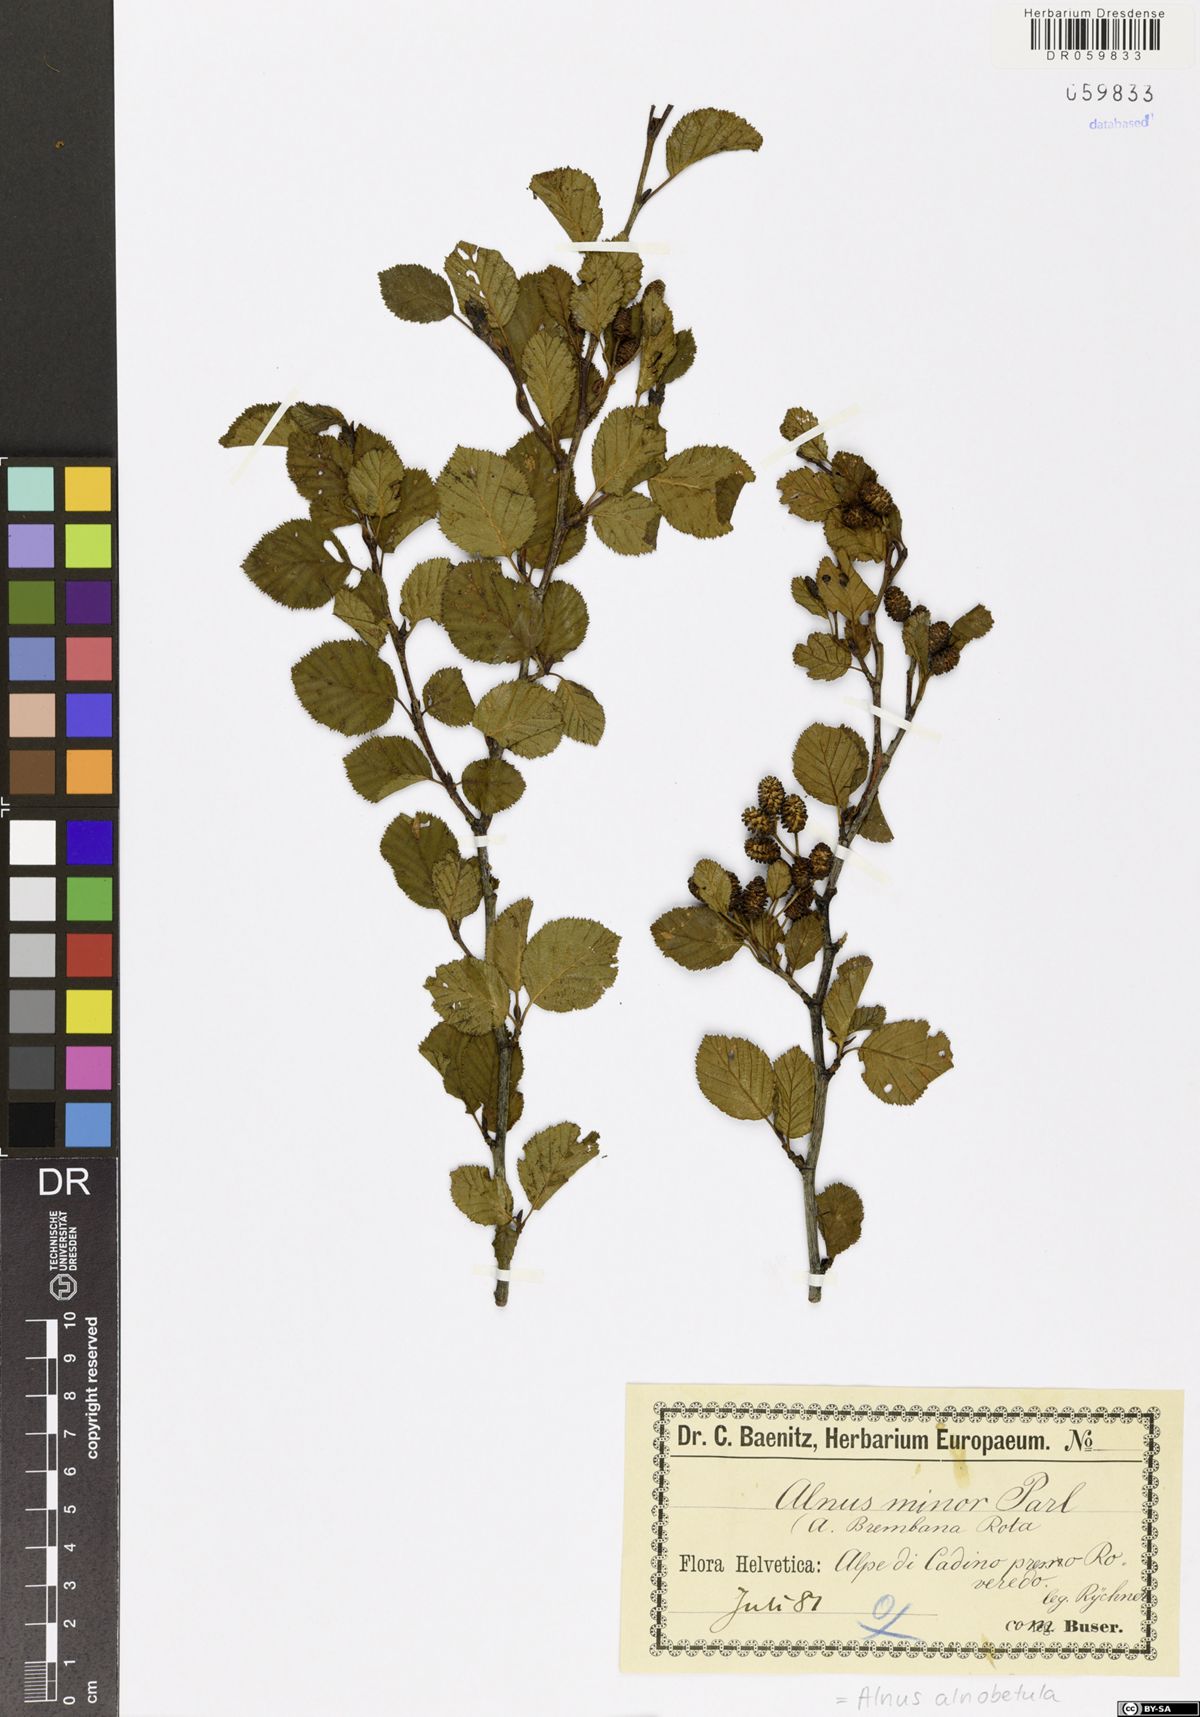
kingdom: Plantae
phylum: Tracheophyta
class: Magnoliopsida
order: Fagales
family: Betulaceae
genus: Alnus
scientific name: Alnus alnobetula
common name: Green alder
